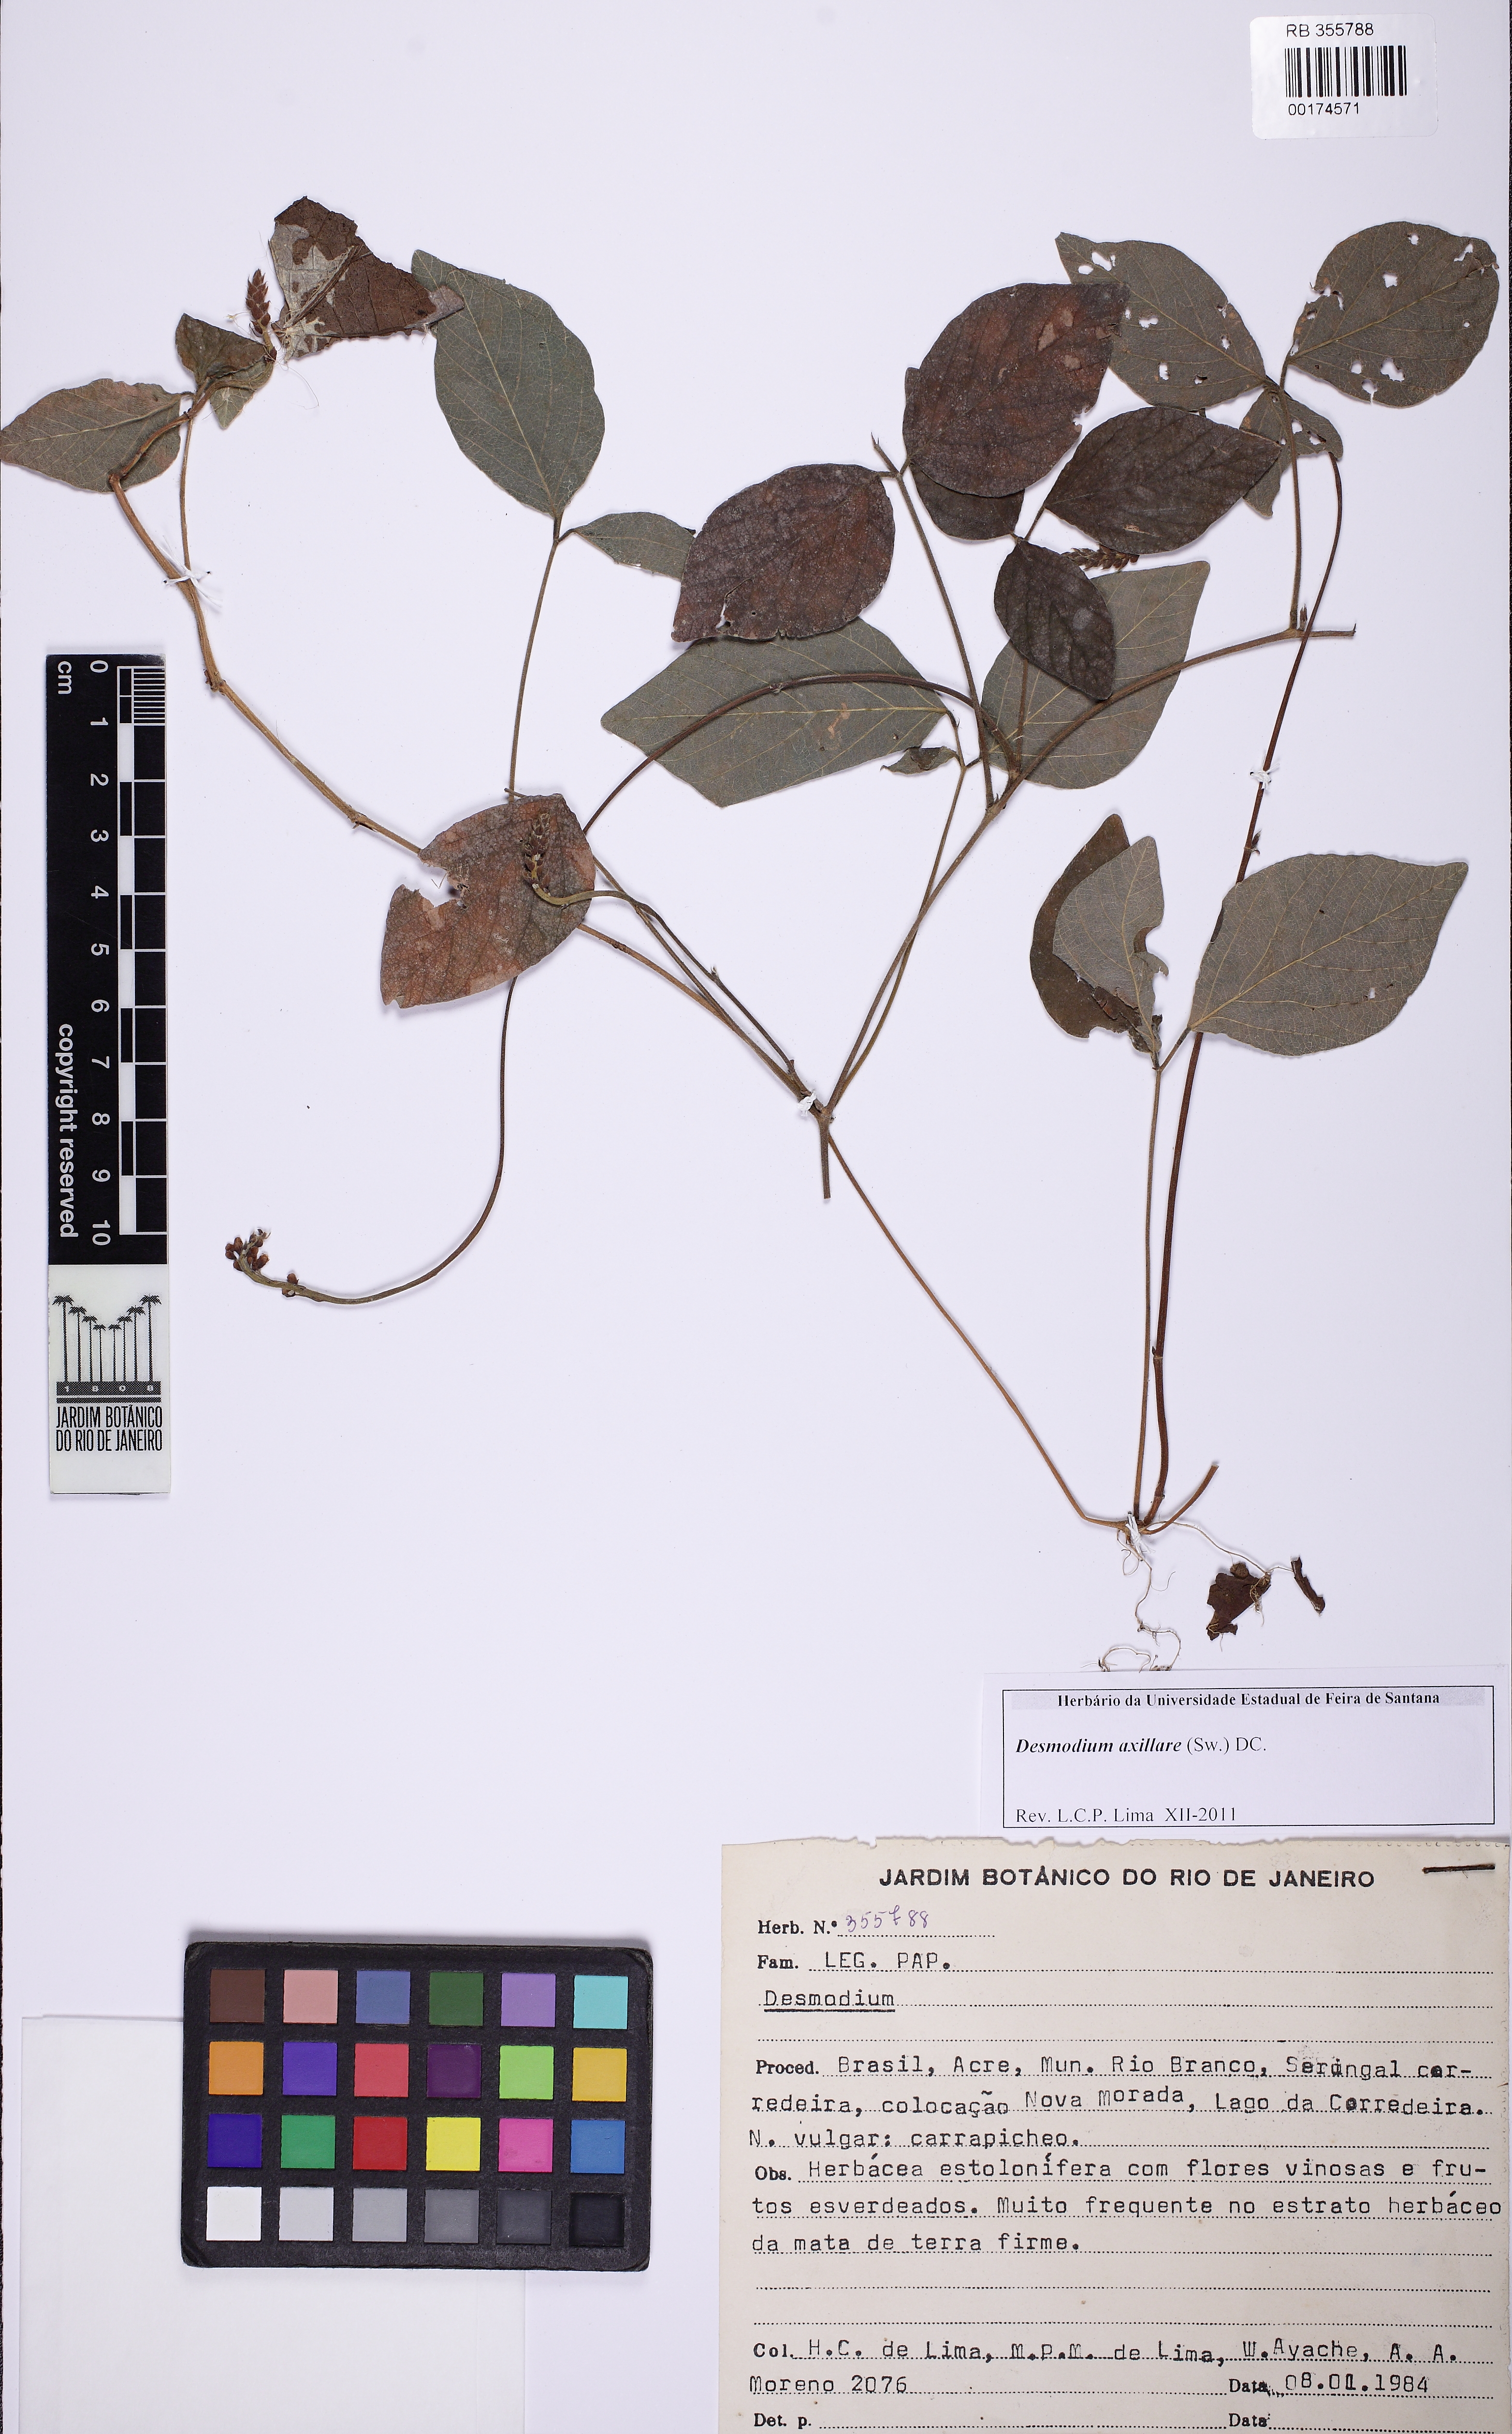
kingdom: Plantae
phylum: Tracheophyta
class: Magnoliopsida
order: Fabales
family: Fabaceae
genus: Desmodium
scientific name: Desmodium axillare
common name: Wire with
